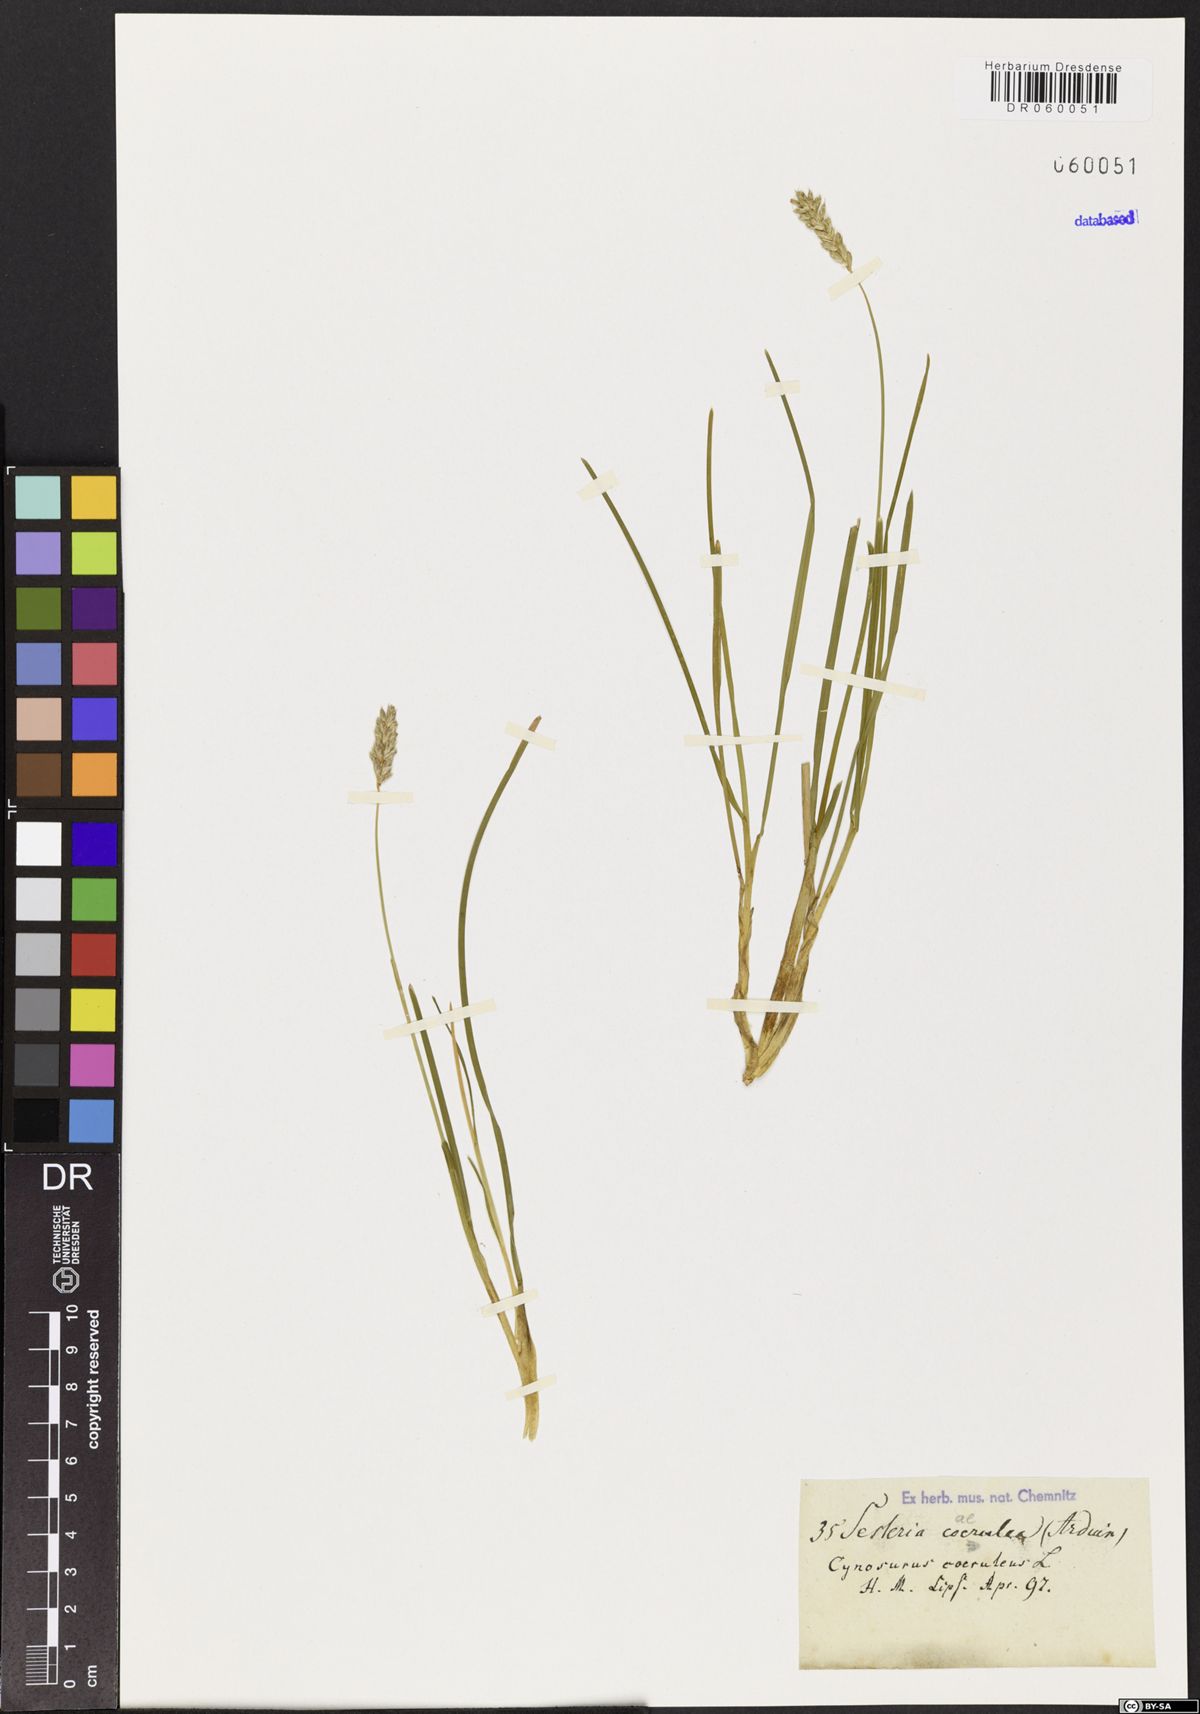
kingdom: Plantae
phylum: Tracheophyta
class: Liliopsida
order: Poales
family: Poaceae
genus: Sesleria
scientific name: Sesleria caerulea
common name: Blue moor-grass
